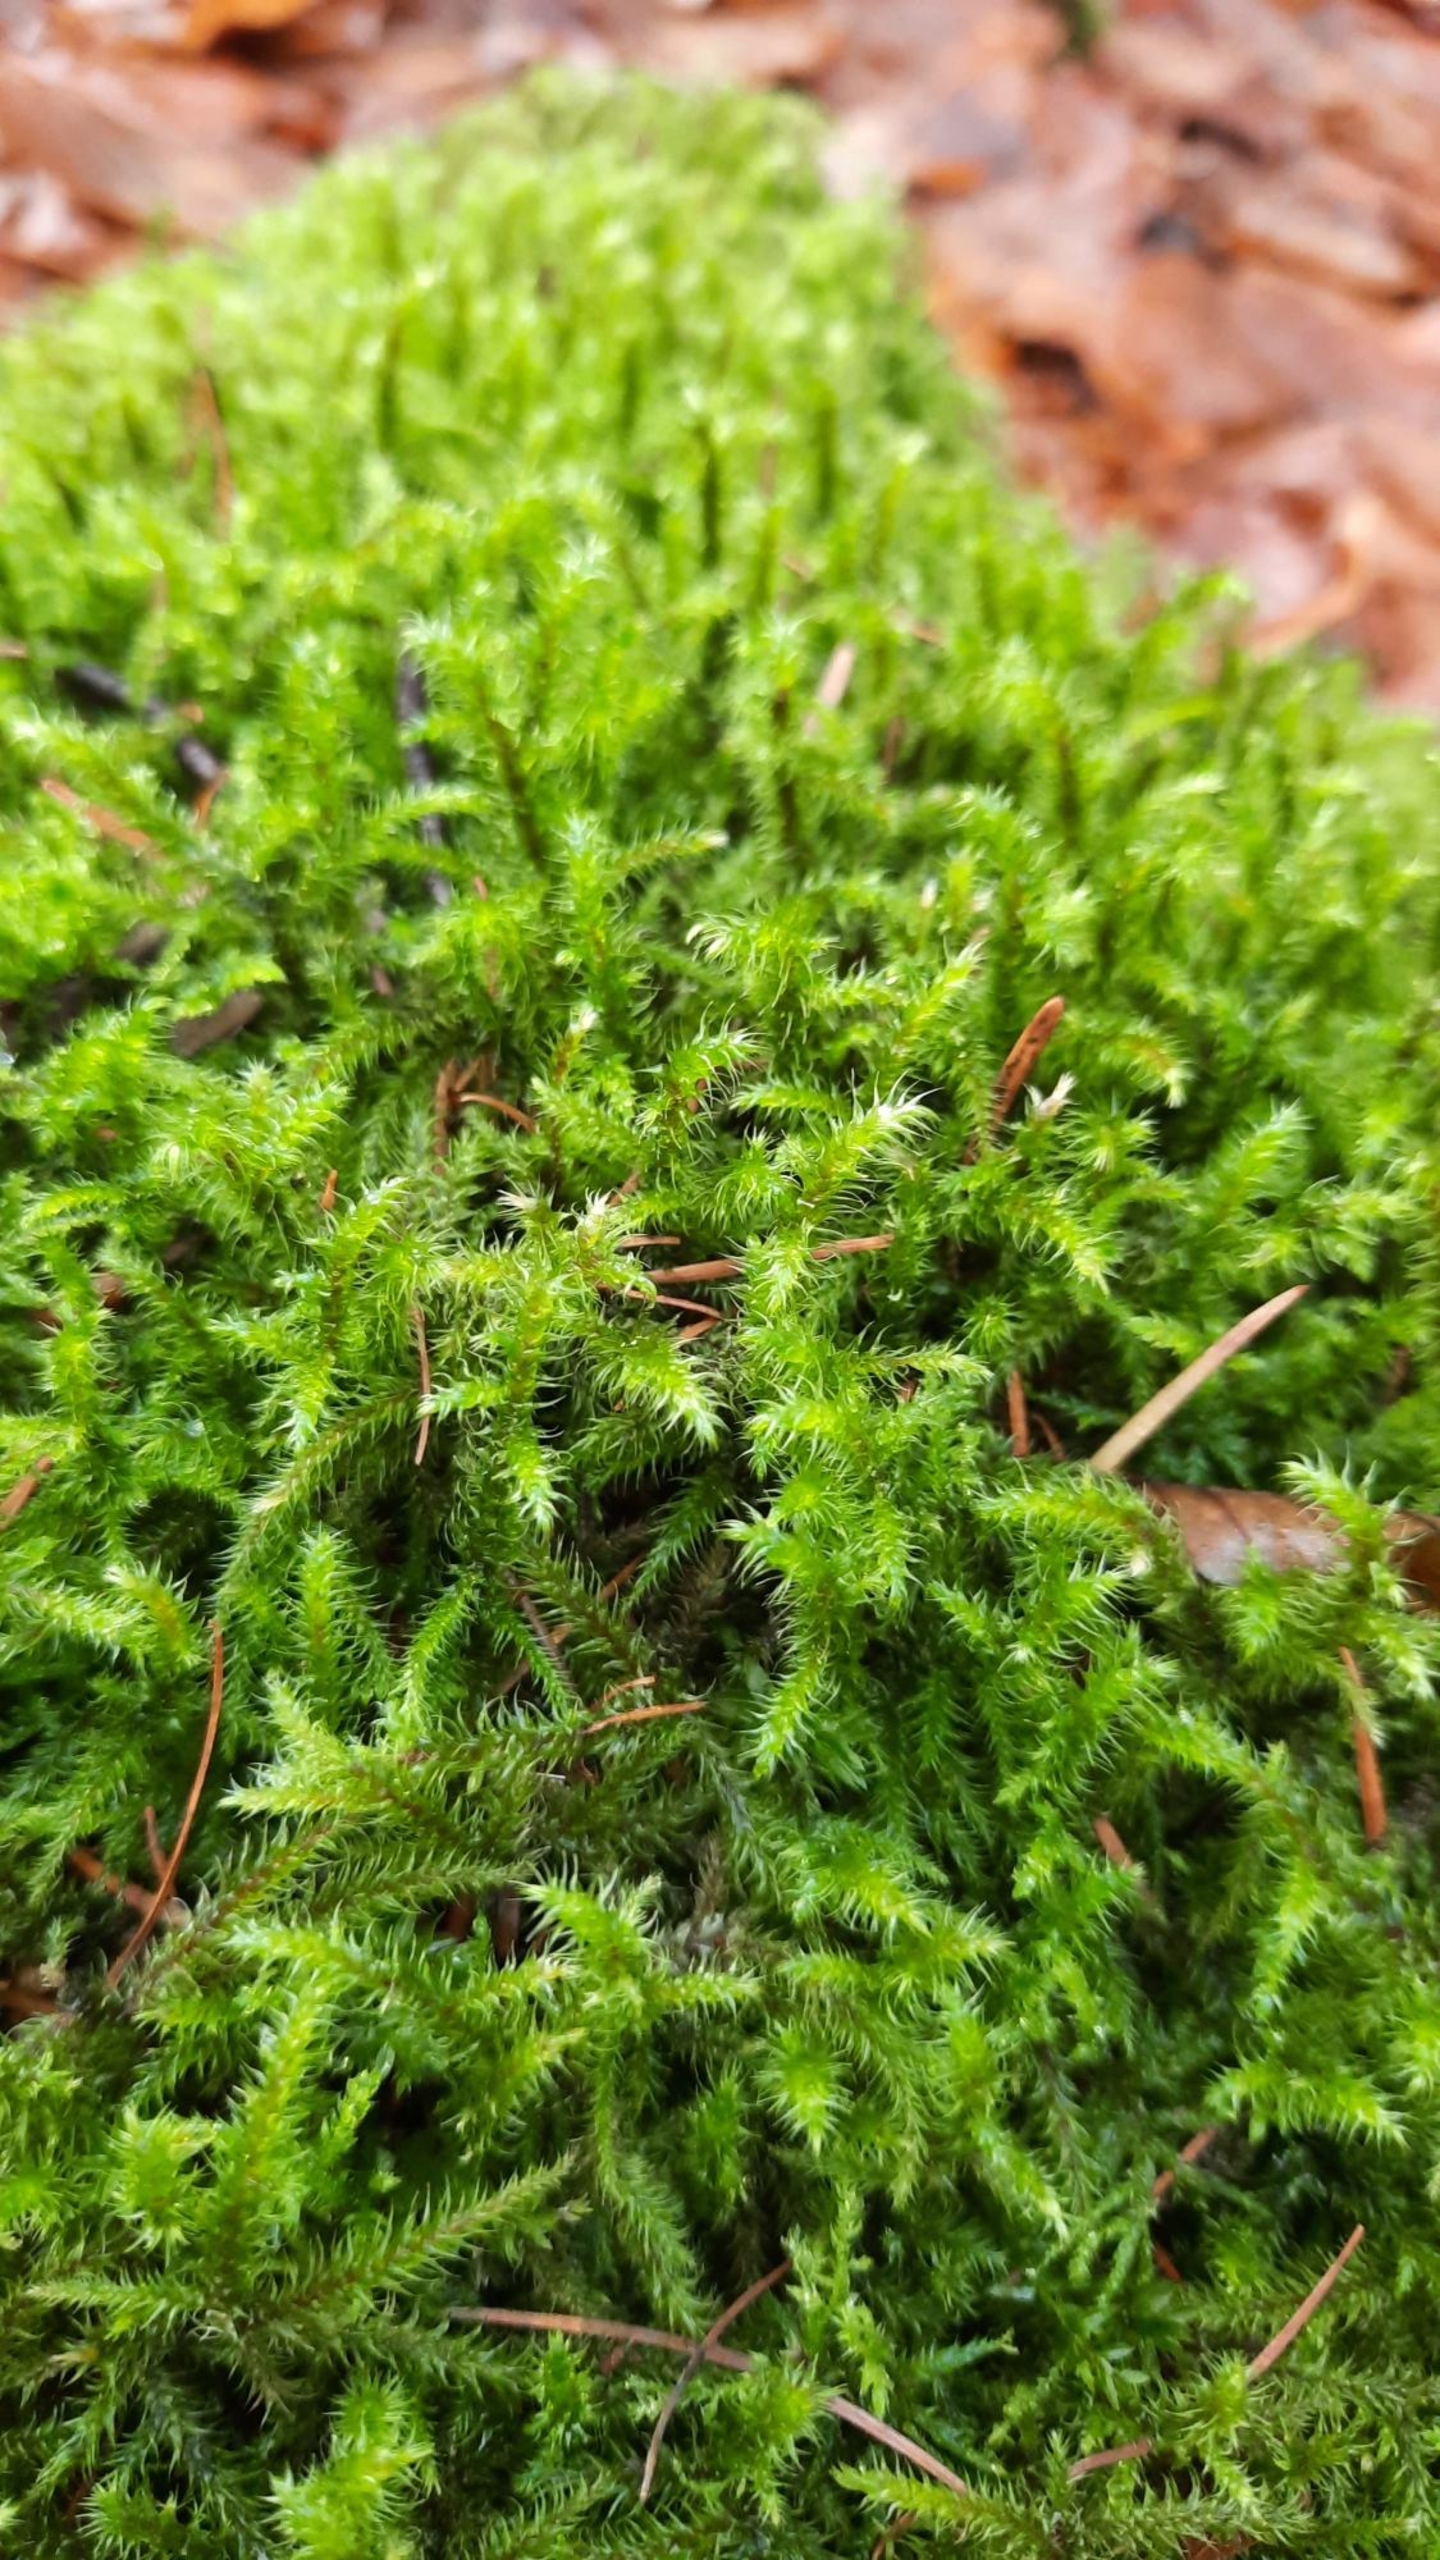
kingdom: Plantae
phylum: Bryophyta
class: Bryopsida
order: Hypnales
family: Hylocomiaceae
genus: Rhytidiadelphus
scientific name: Rhytidiadelphus loreus
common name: Ulvefod-kransemos
